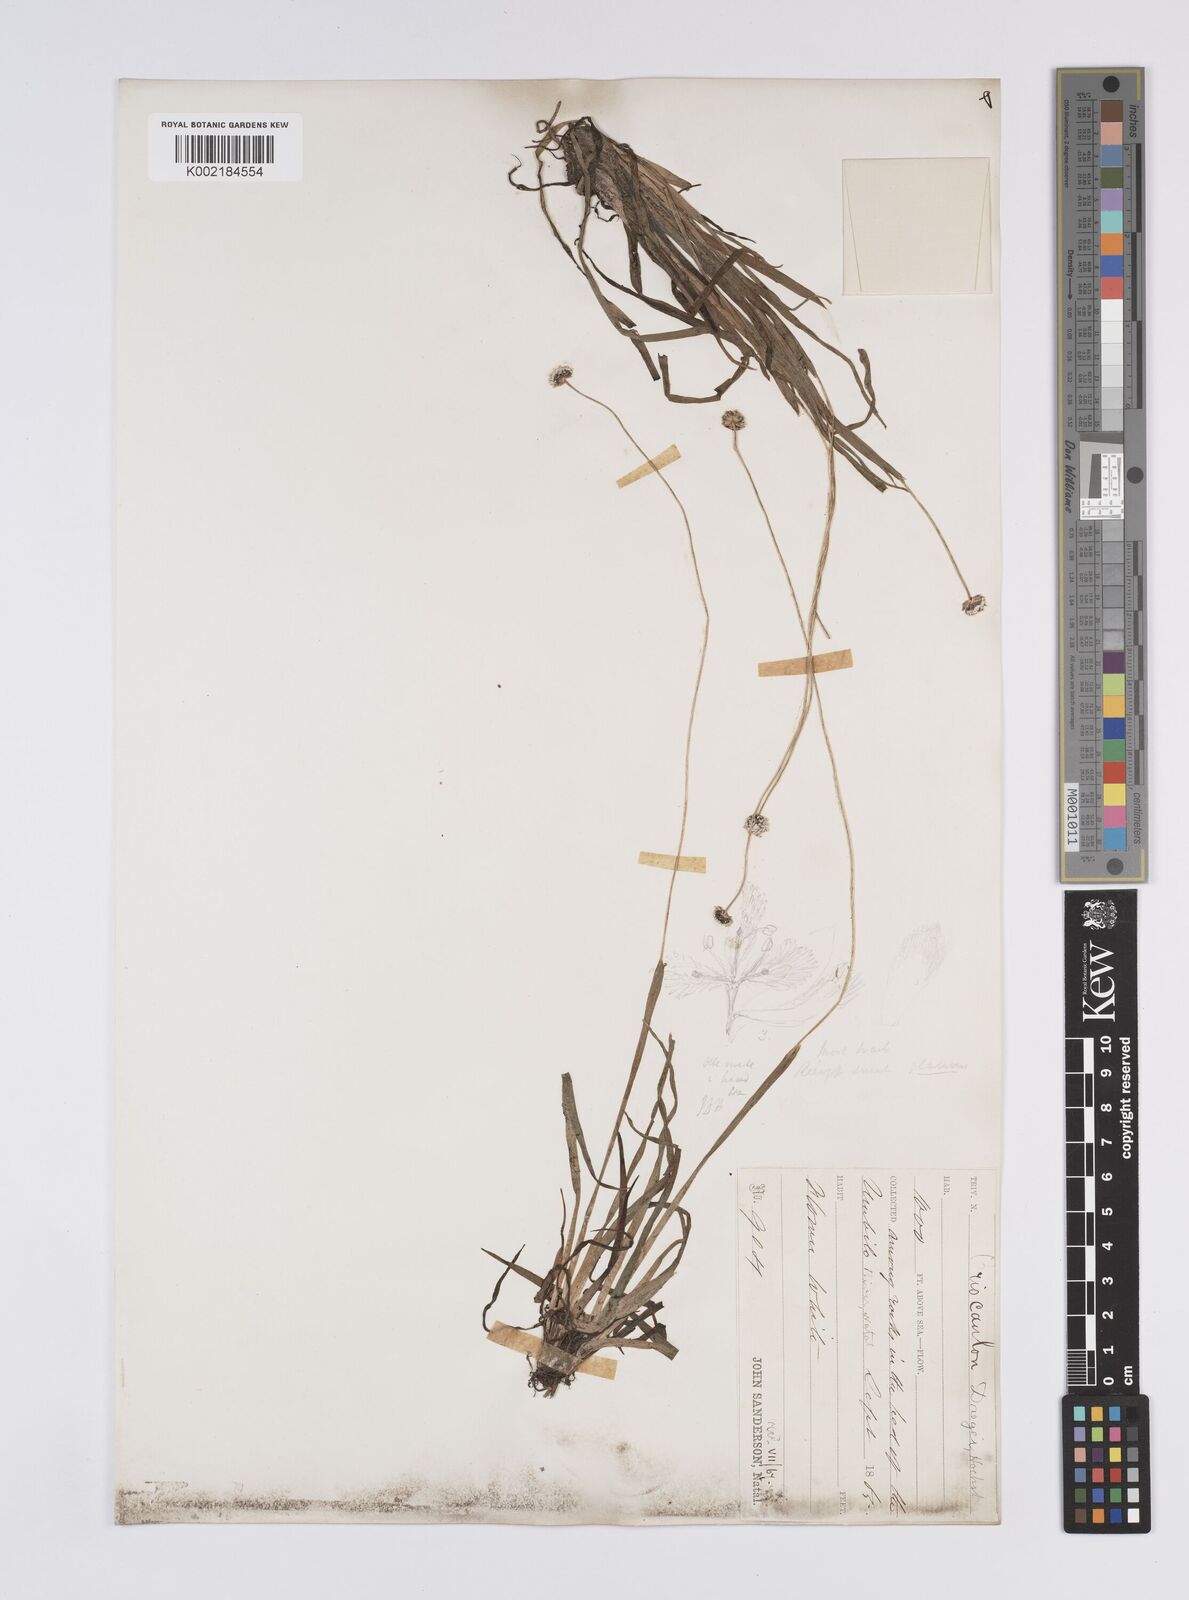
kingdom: Plantae
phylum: Tracheophyta
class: Liliopsida
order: Poales
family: Eriocaulaceae
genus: Eriocaulon
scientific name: Eriocaulon dregei
